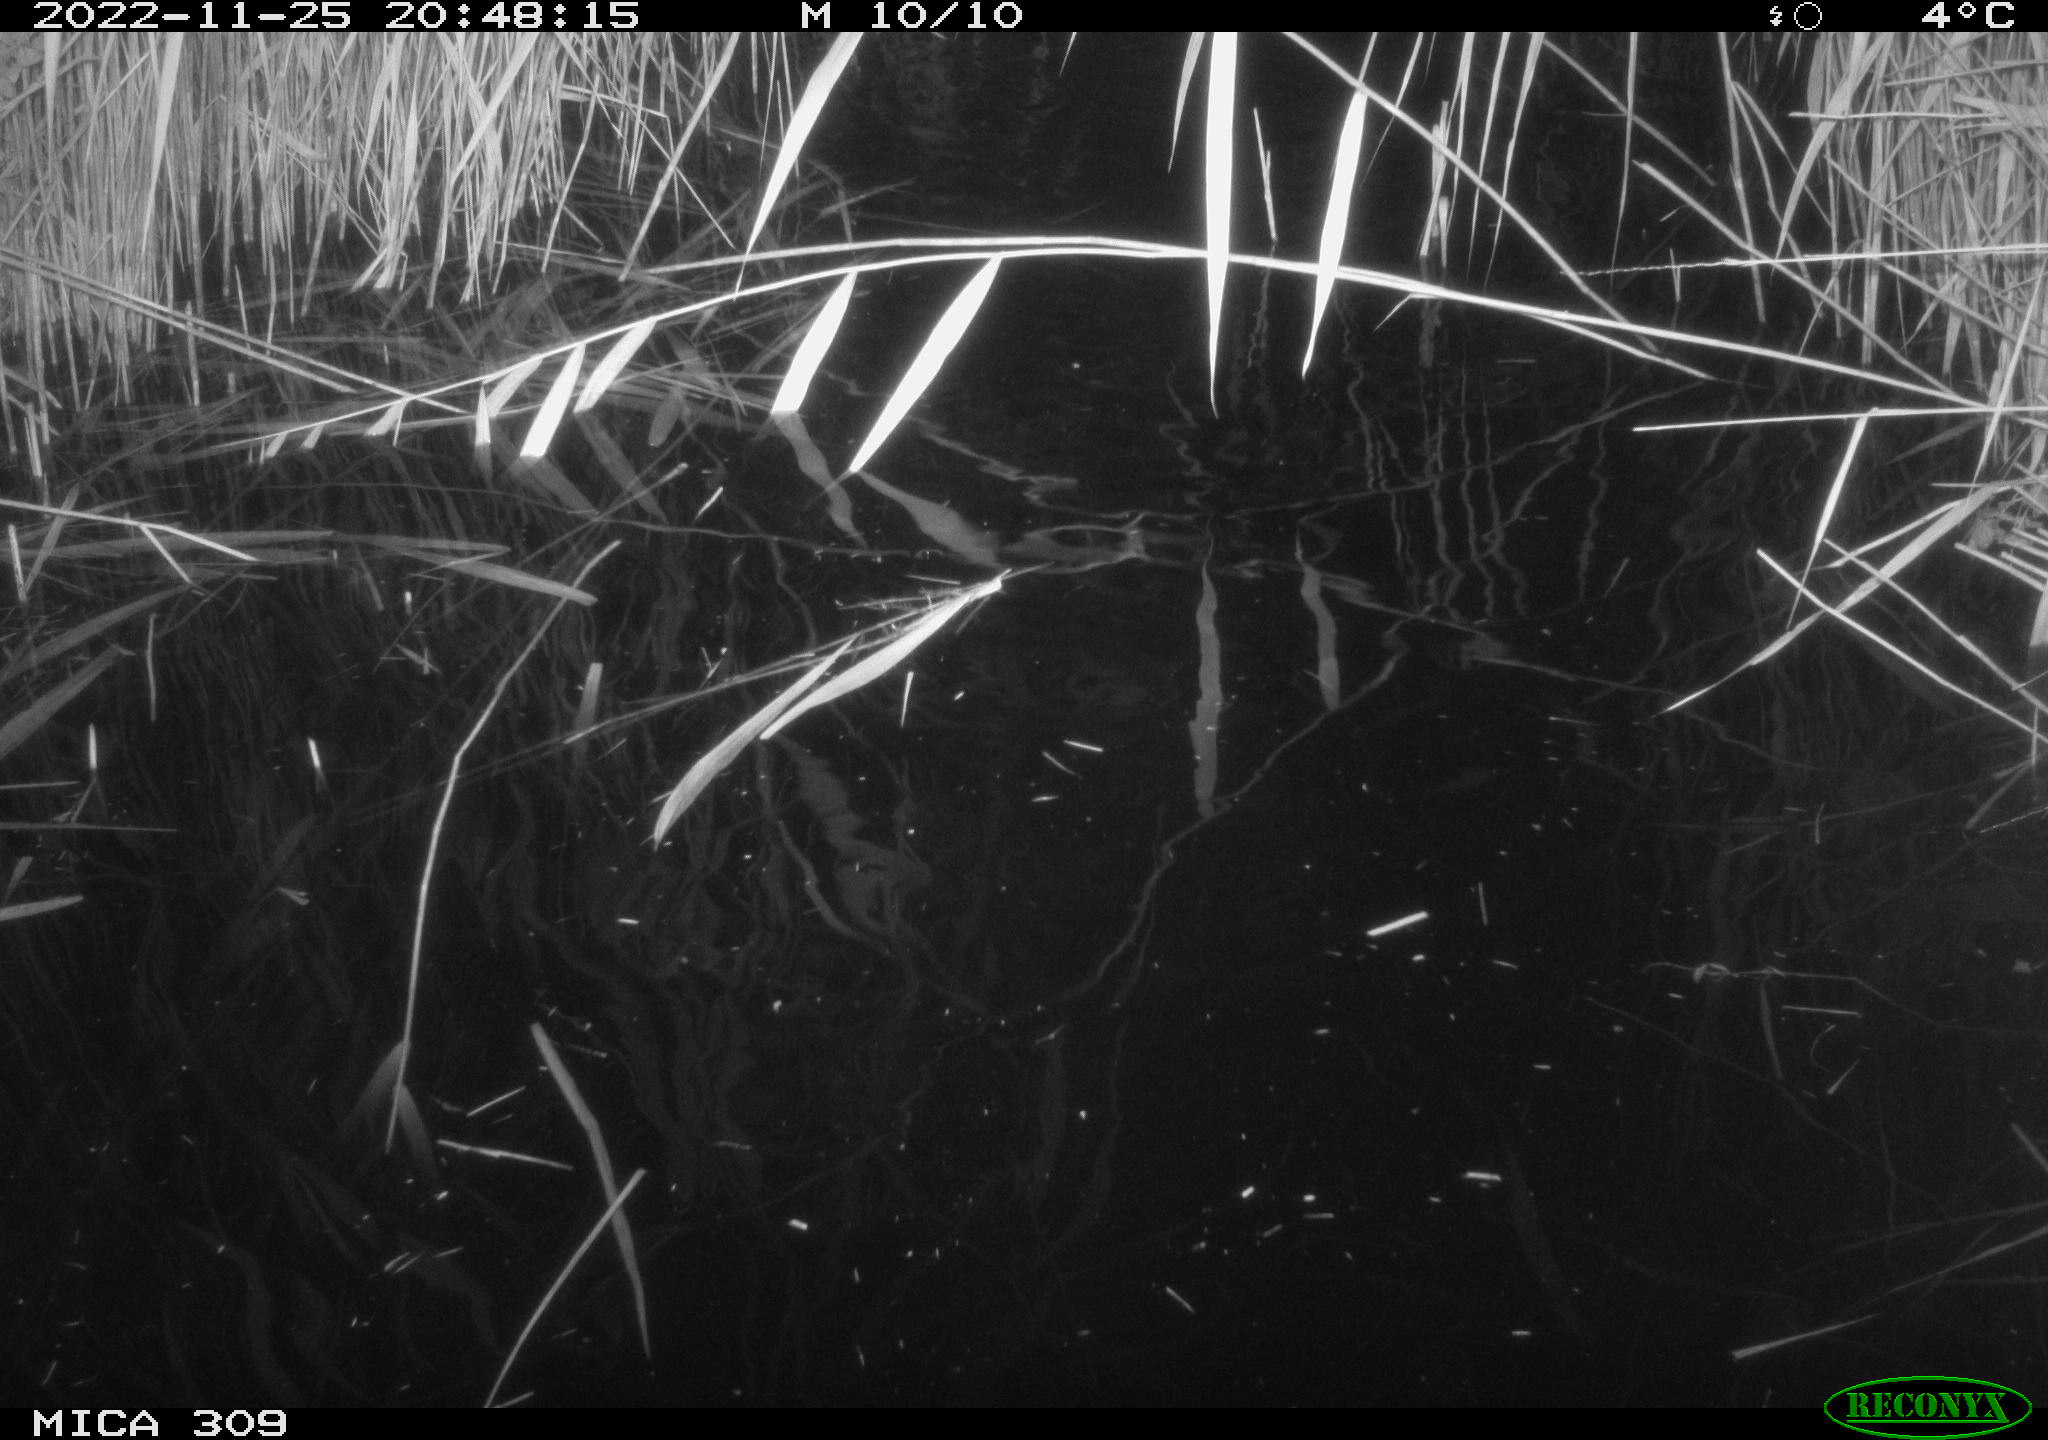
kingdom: Animalia
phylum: Chordata
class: Mammalia
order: Rodentia
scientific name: Rodentia
